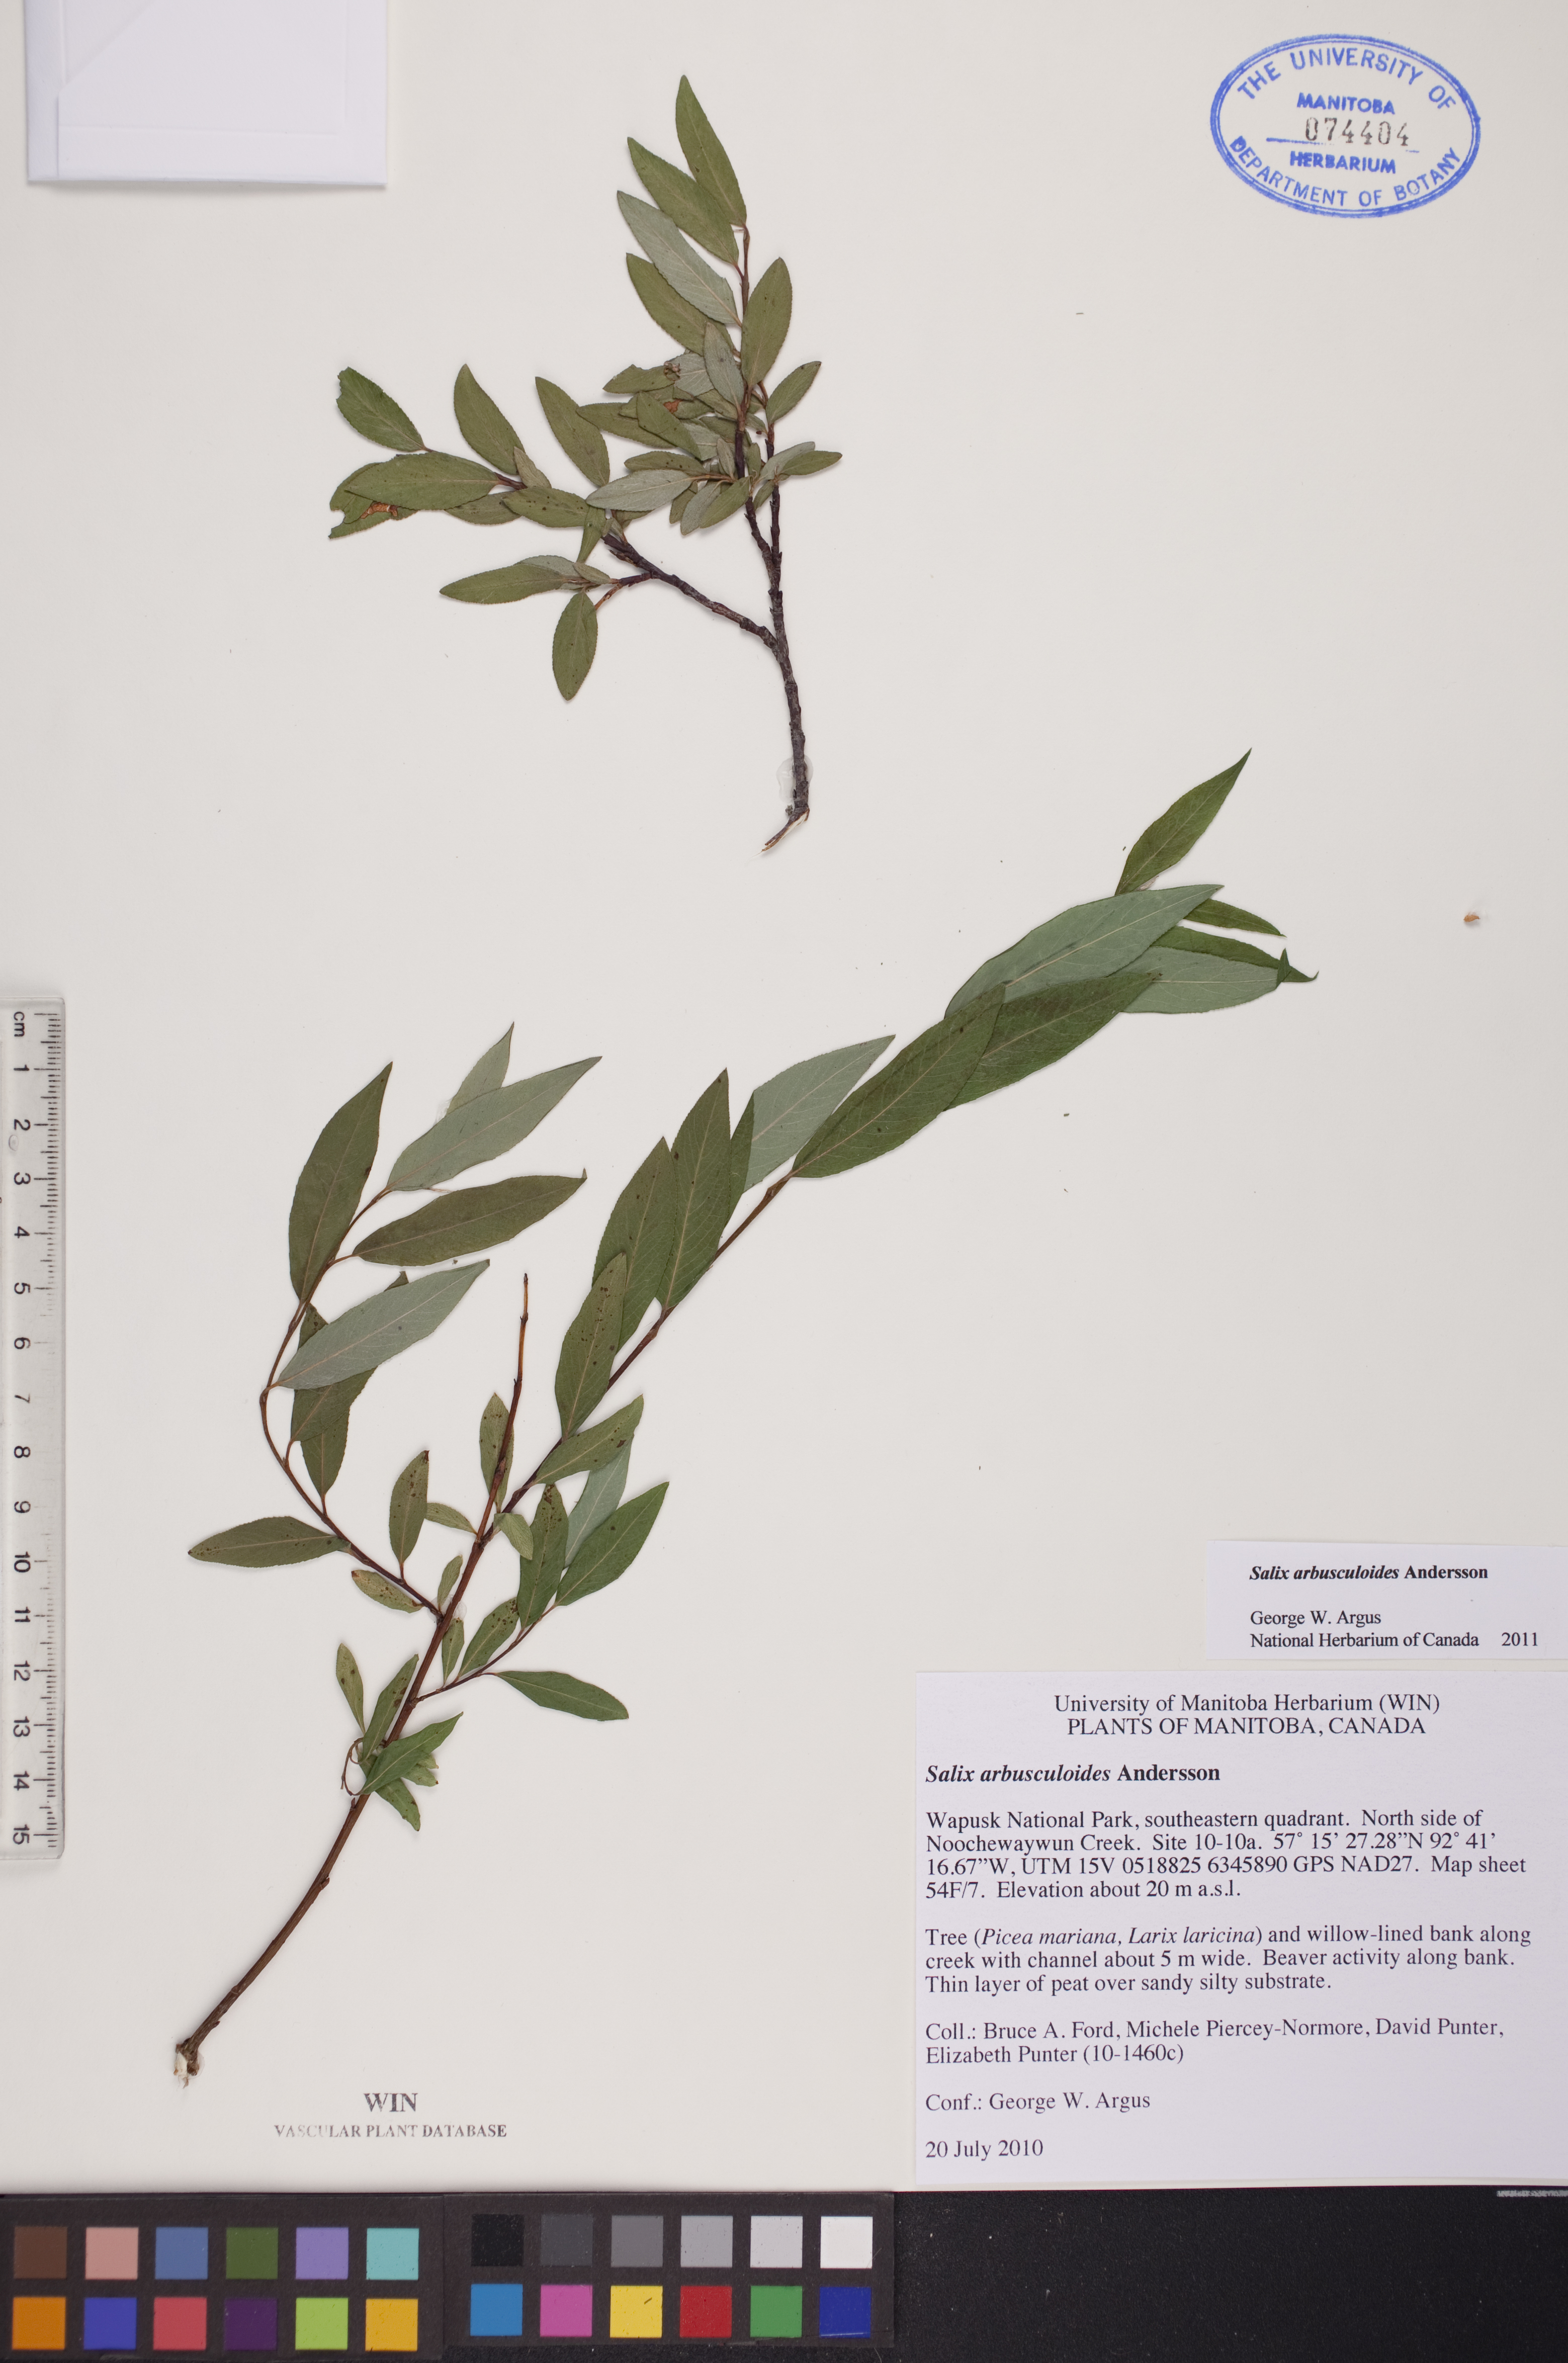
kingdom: Plantae
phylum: Tracheophyta
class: Magnoliopsida
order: Malpighiales
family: Salicaceae
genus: Salix
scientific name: Salix arbusculoides
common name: Little-tree willow
